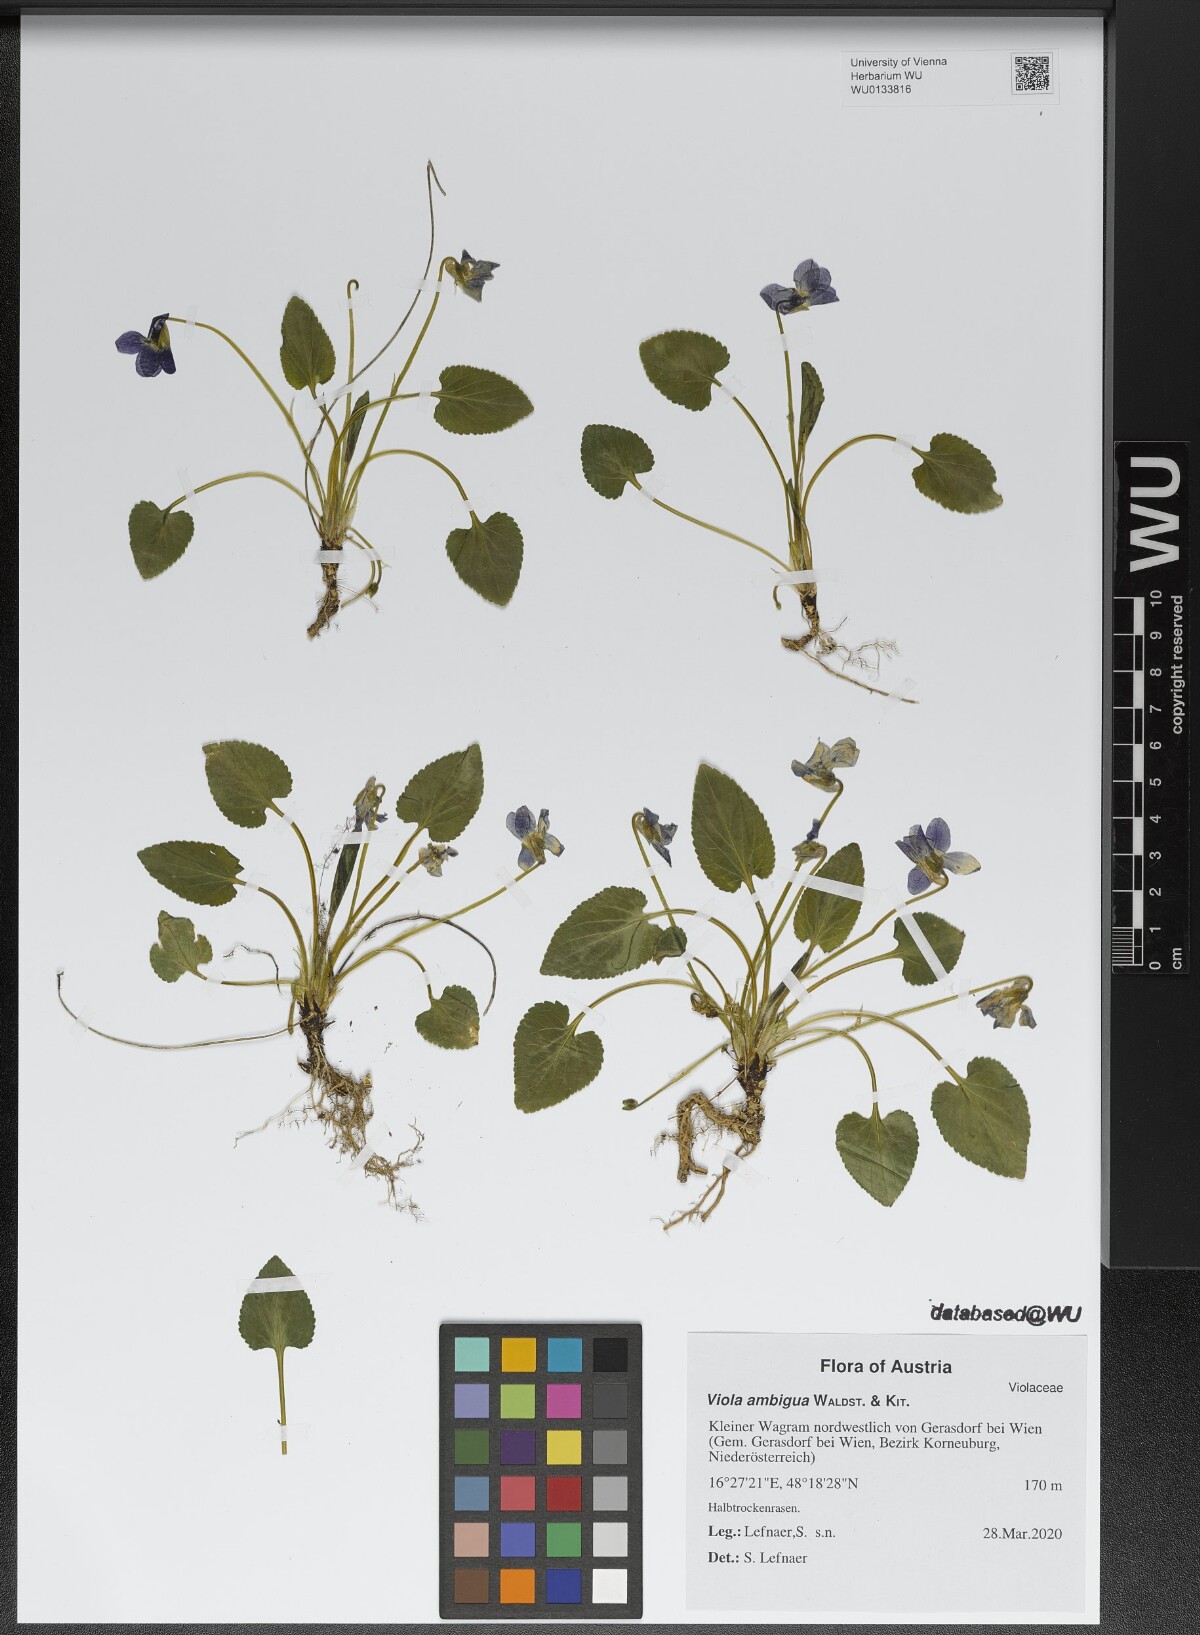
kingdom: Plantae
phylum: Tracheophyta
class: Magnoliopsida
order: Malpighiales
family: Violaceae
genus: Viola
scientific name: Viola ambigua
